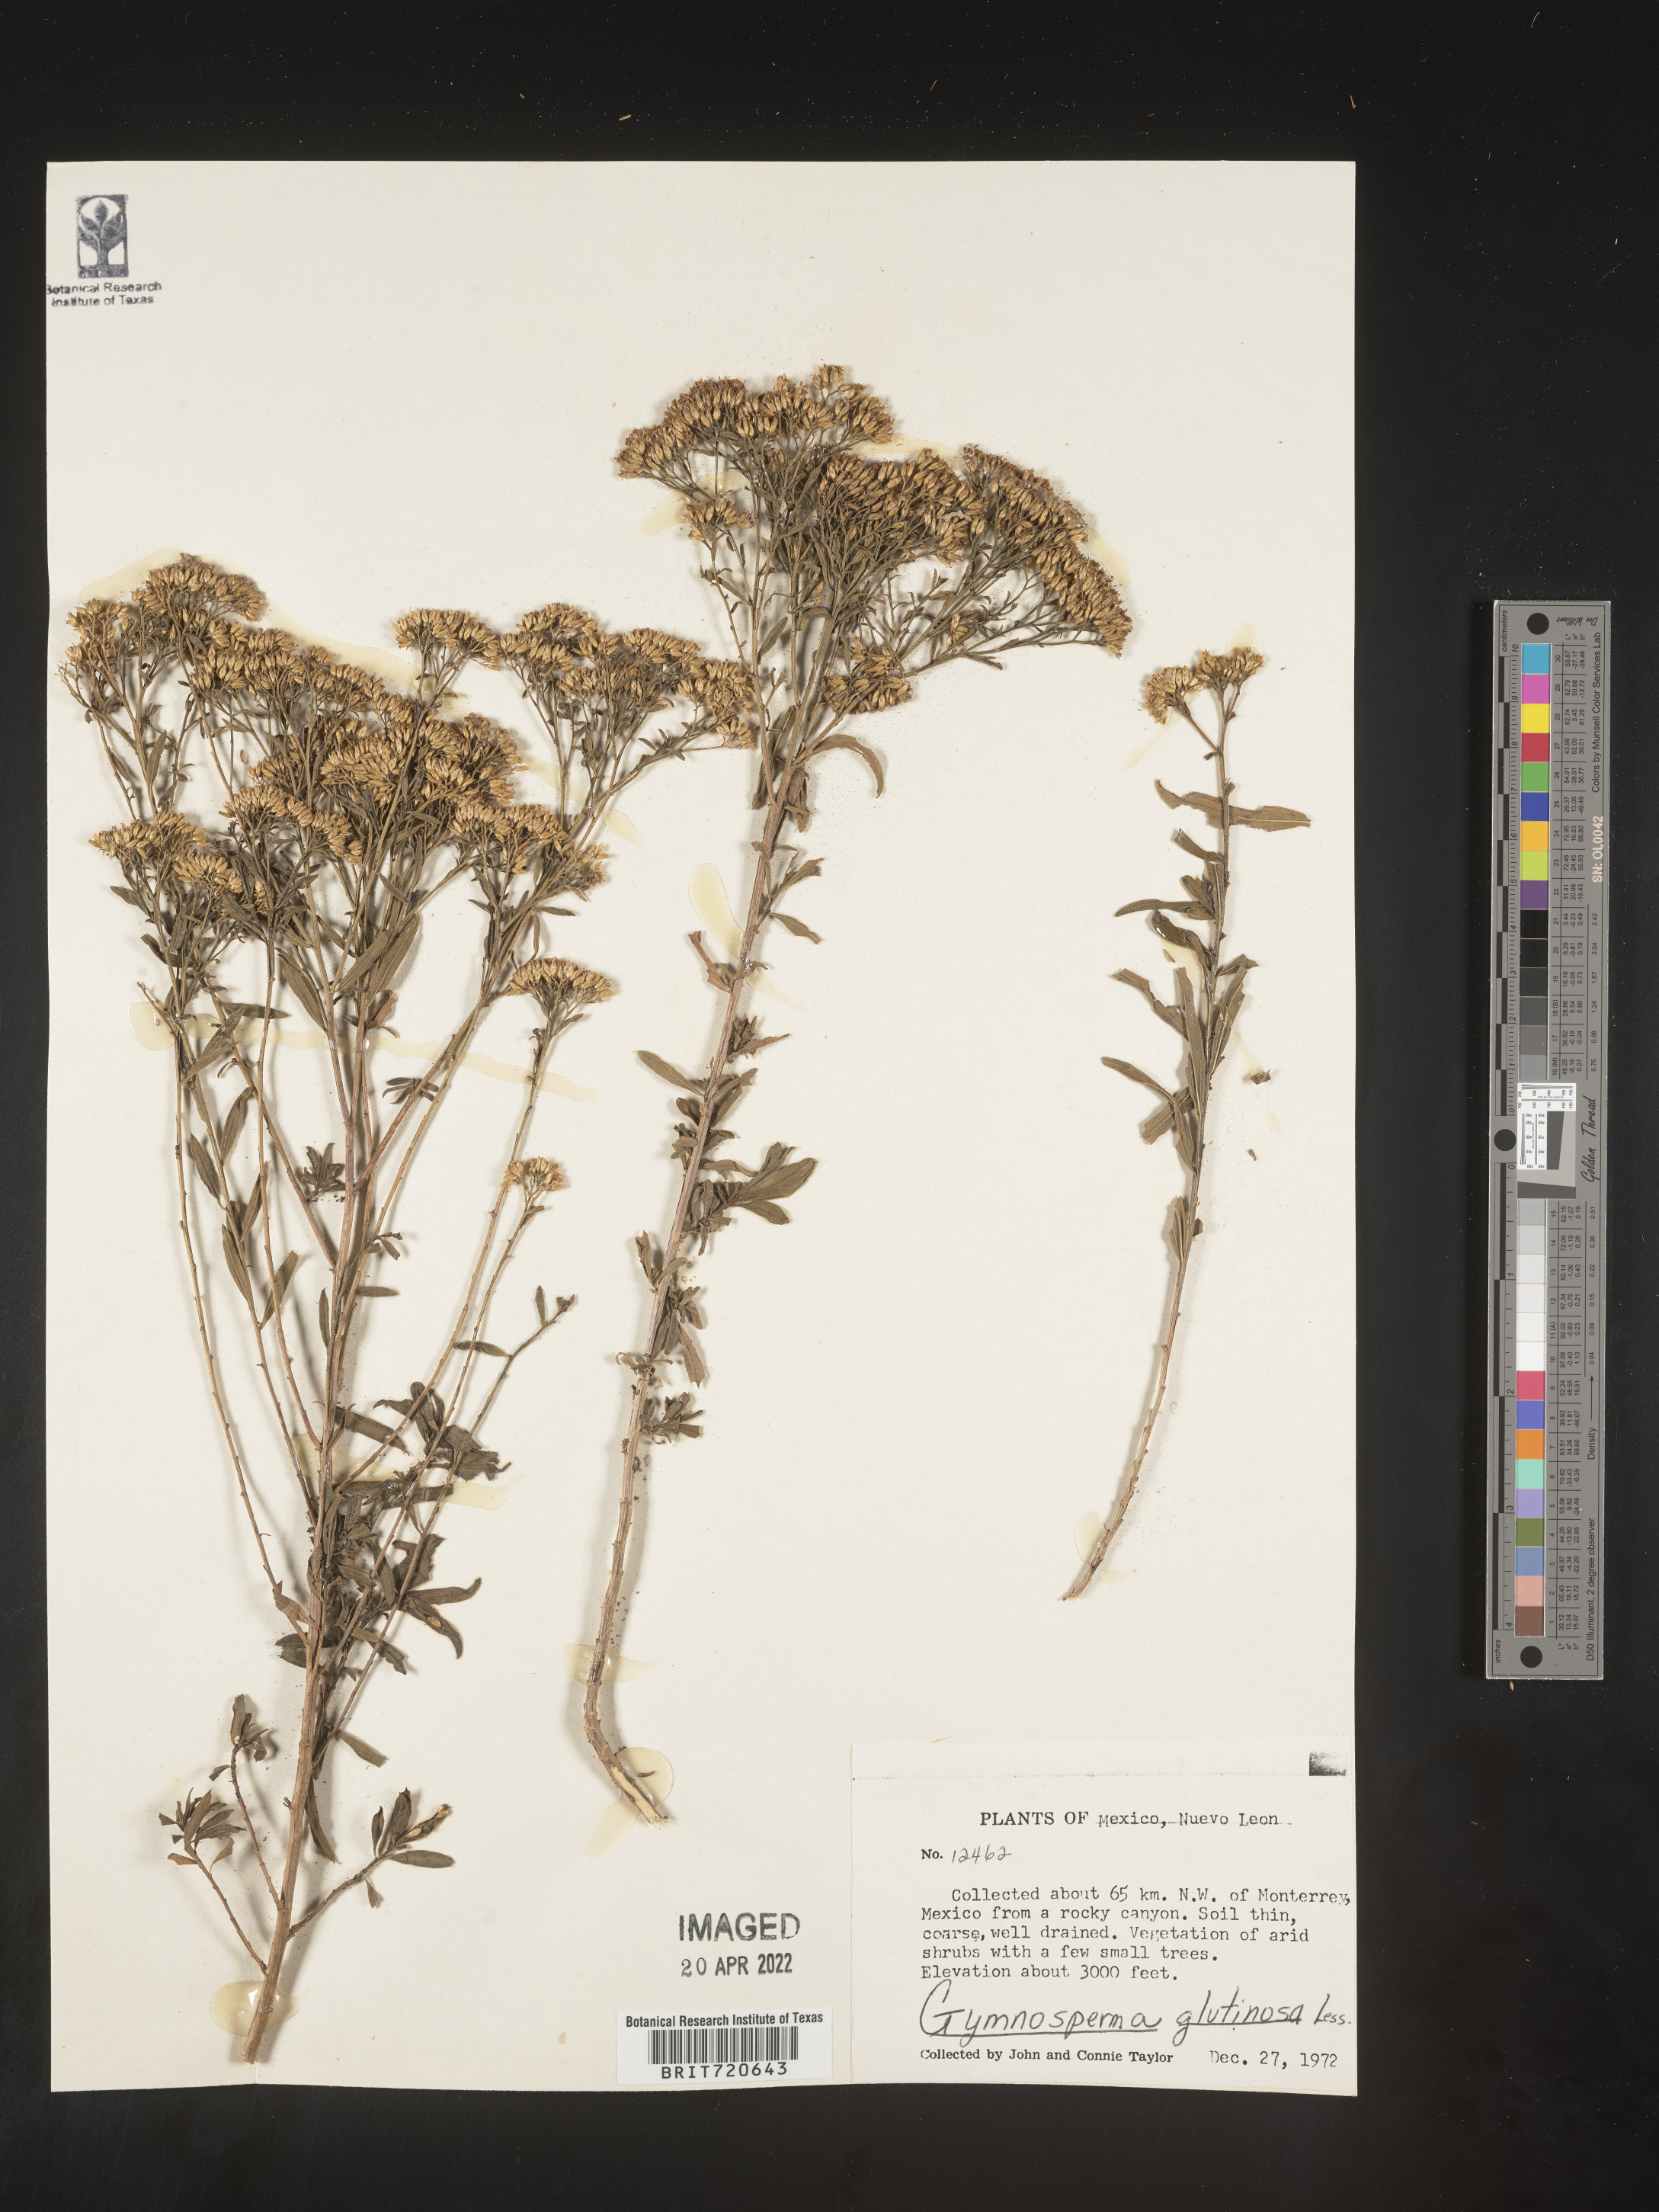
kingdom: Plantae
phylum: Tracheophyta
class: Magnoliopsida
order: Asterales
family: Asteraceae
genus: Gymnosperma
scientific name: Gymnosperma glutinosum
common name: Gumhead
